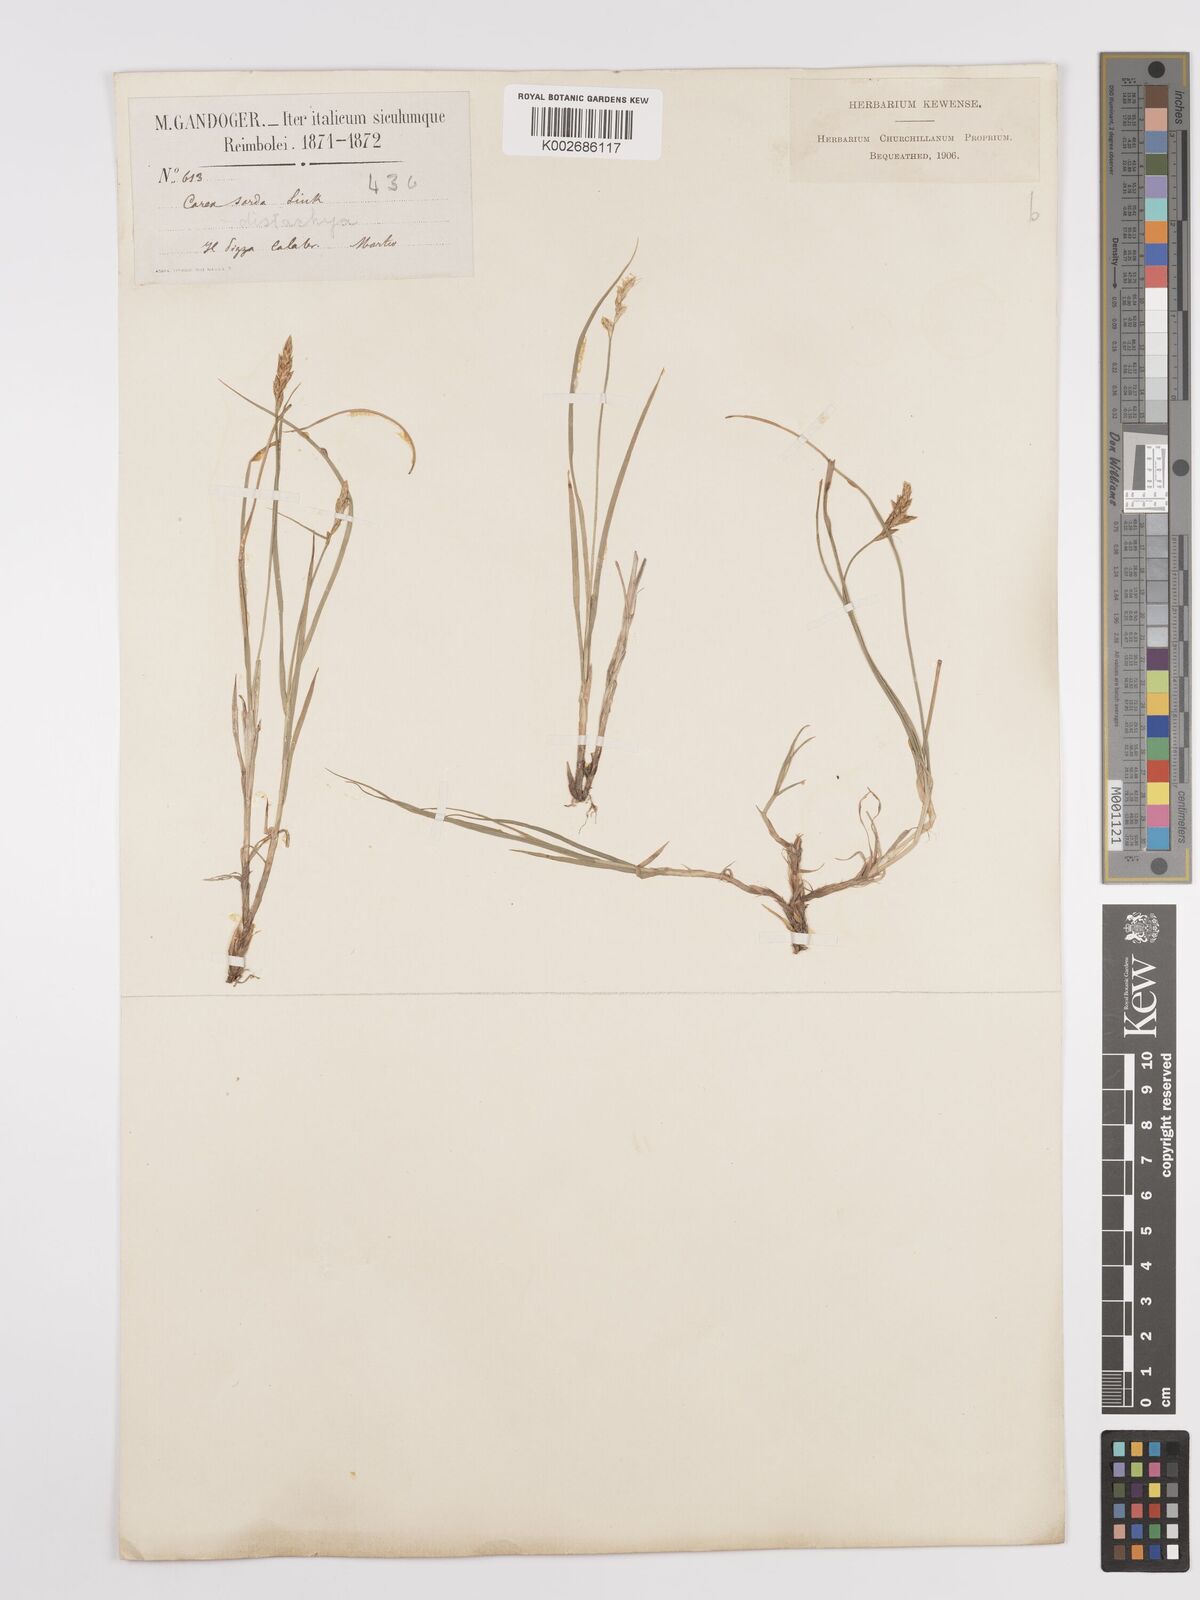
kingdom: Plantae
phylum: Tracheophyta
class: Liliopsida
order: Poales
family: Cyperaceae
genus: Carex
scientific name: Carex distachya
